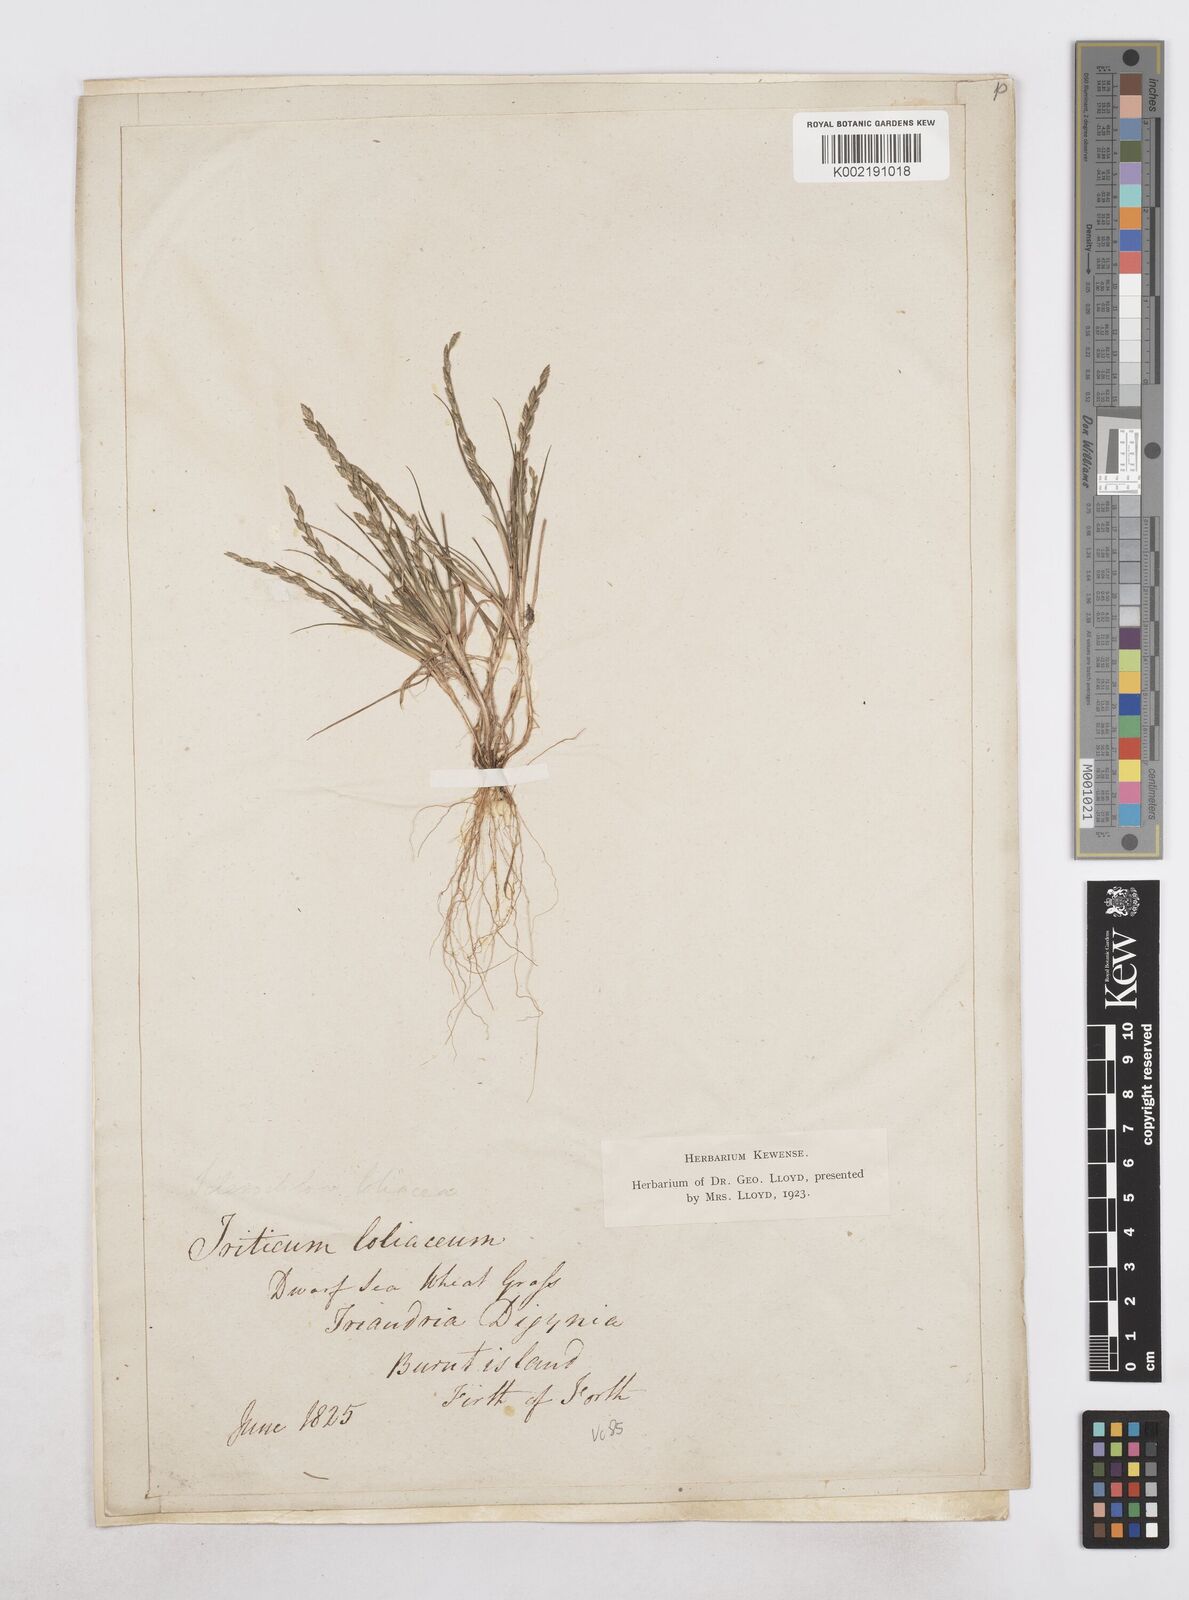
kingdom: Plantae
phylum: Tracheophyta
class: Liliopsida
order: Poales
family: Poaceae
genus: Catapodium
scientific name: Catapodium marinum
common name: Sea fern-grass
